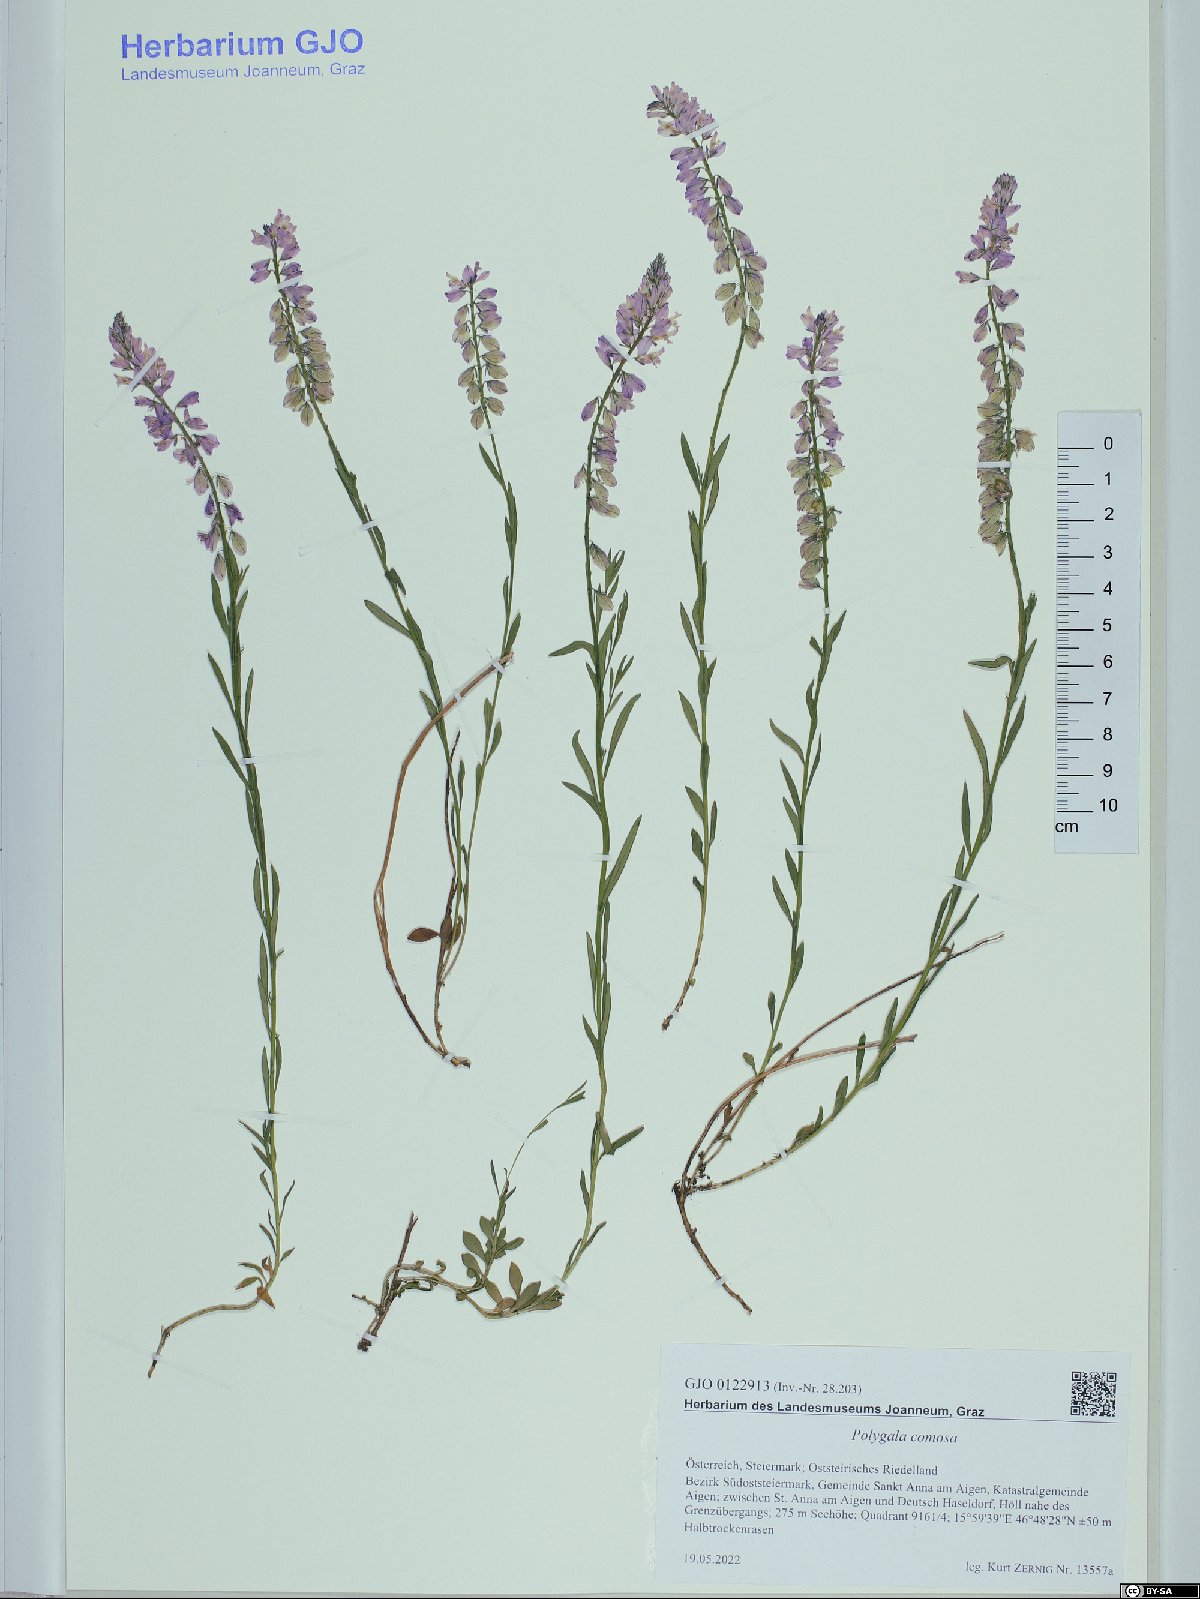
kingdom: Plantae
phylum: Tracheophyta
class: Magnoliopsida
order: Fabales
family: Polygalaceae
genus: Polygala
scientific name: Polygala comosa
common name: Tufted milkwort
